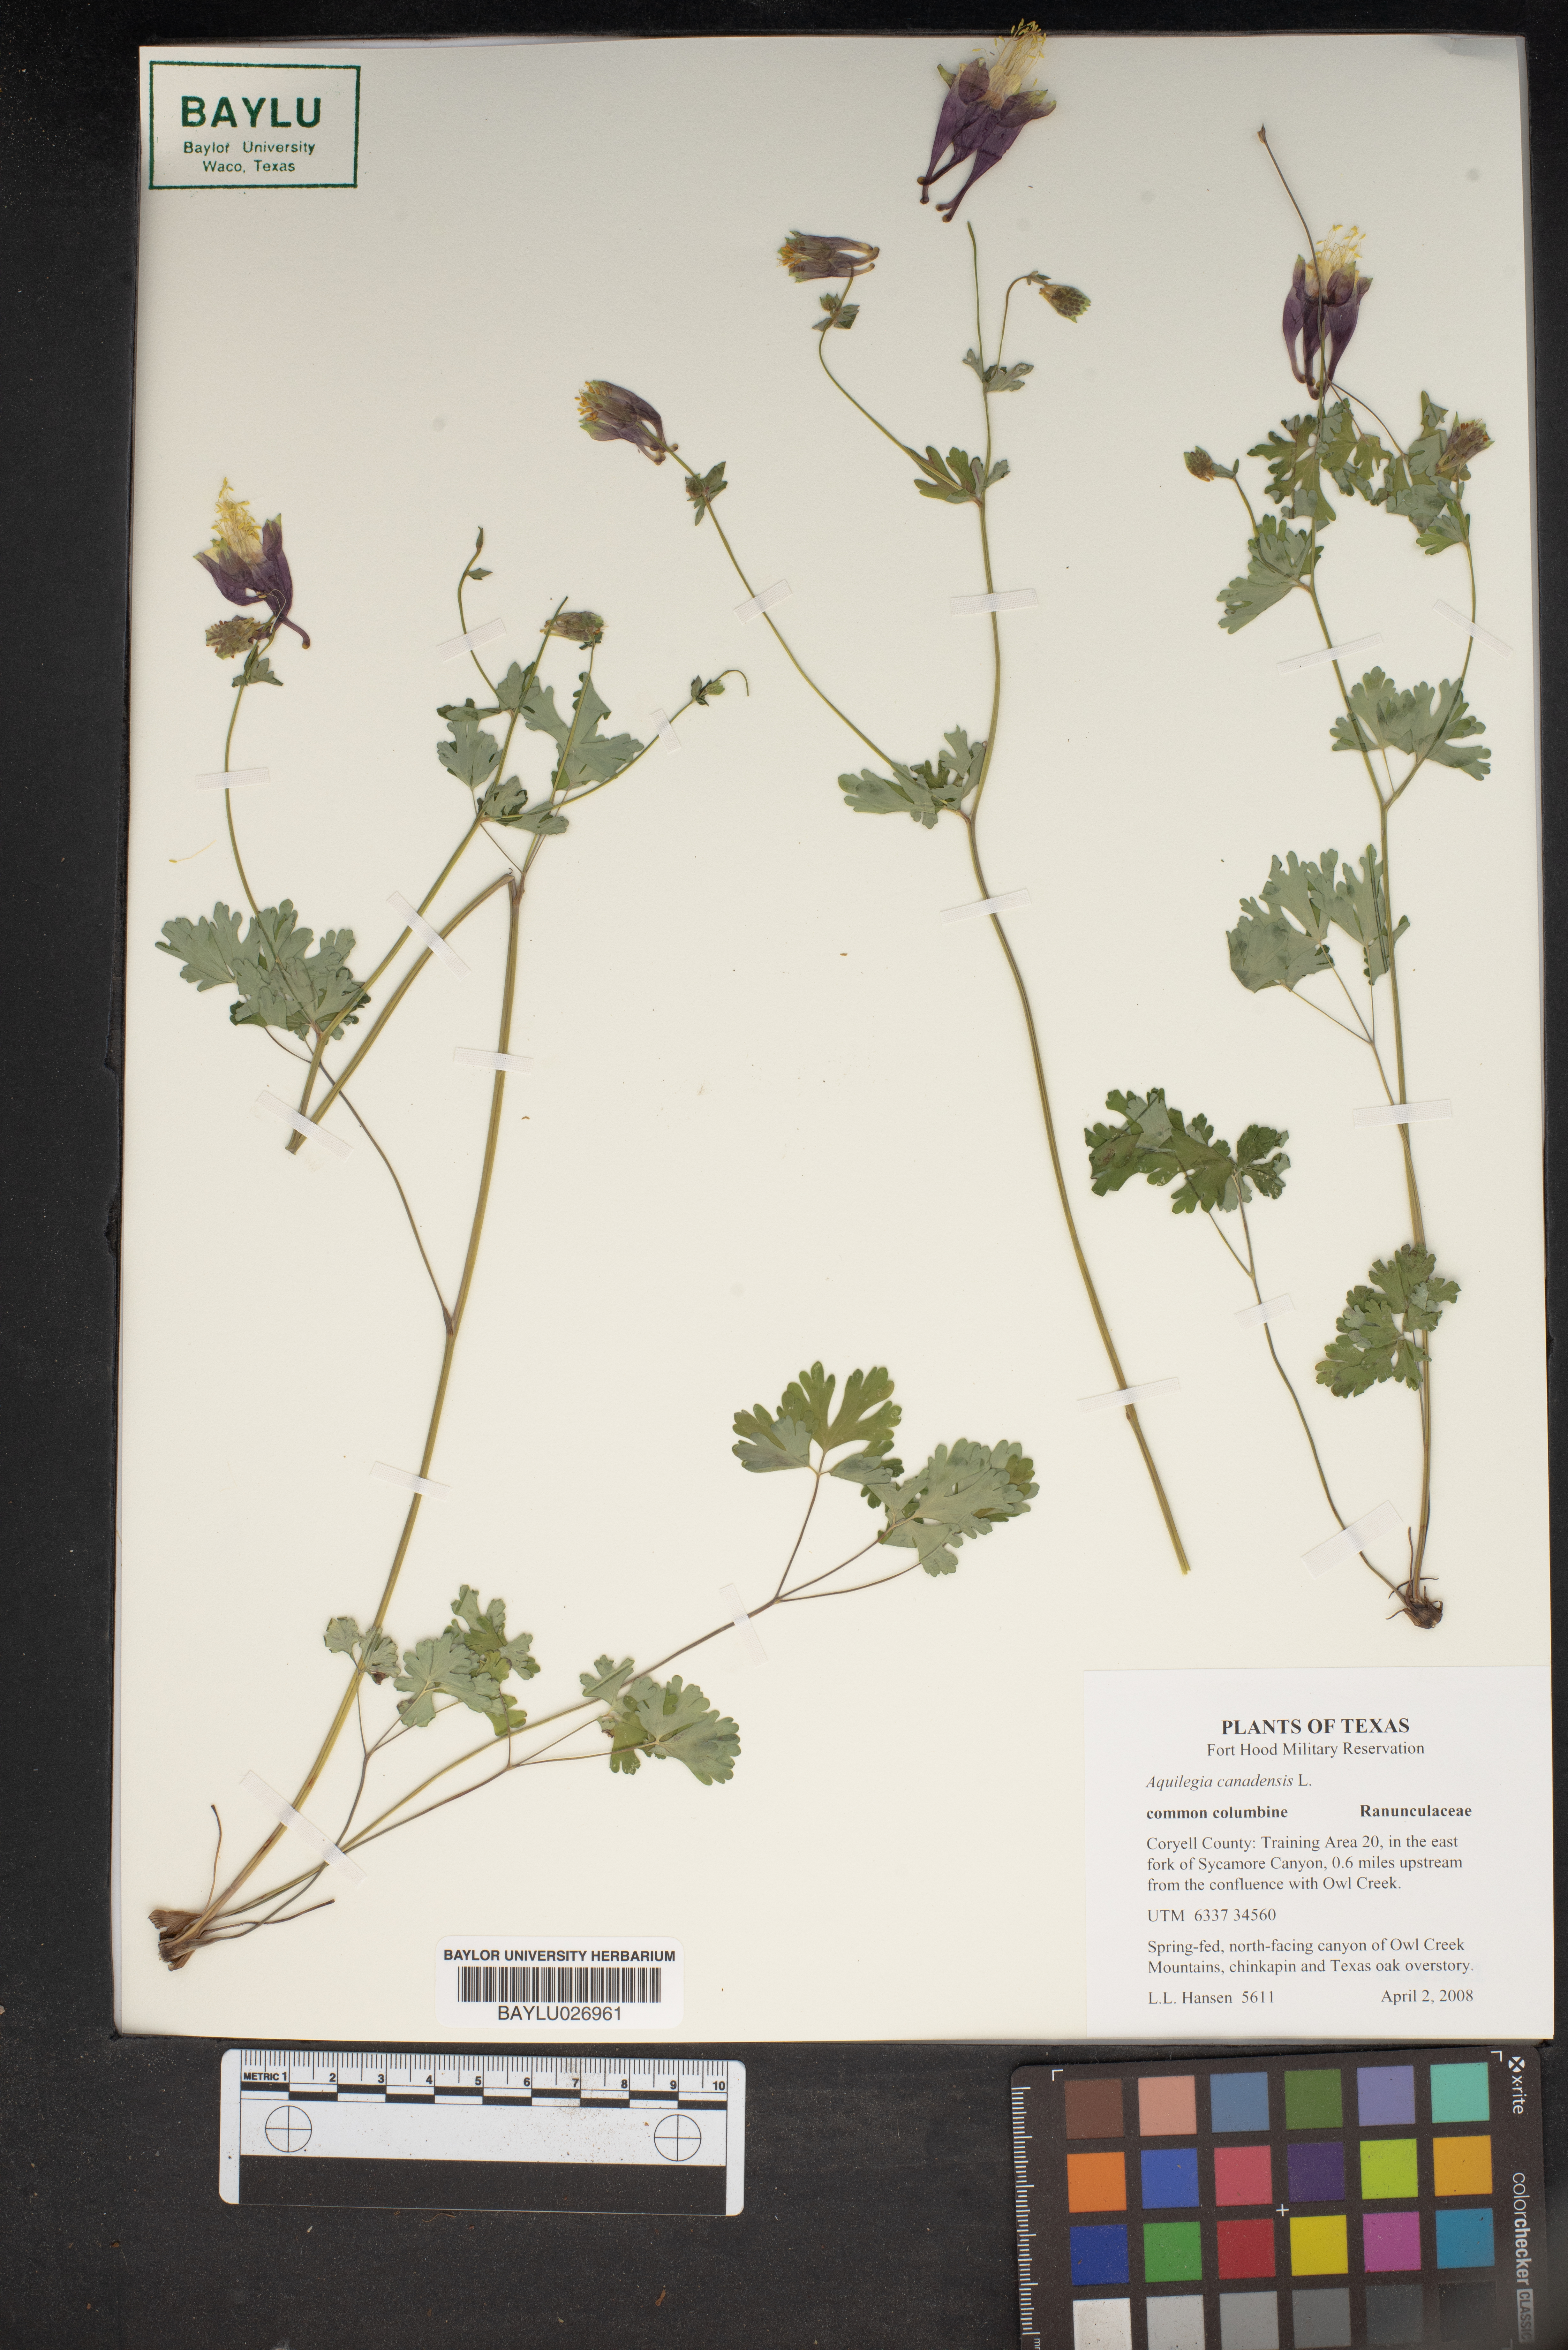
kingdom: Plantae
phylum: Tracheophyta
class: Magnoliopsida
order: Ranunculales
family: Ranunculaceae
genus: Aquilegia
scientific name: Aquilegia canadensis
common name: American columbine
